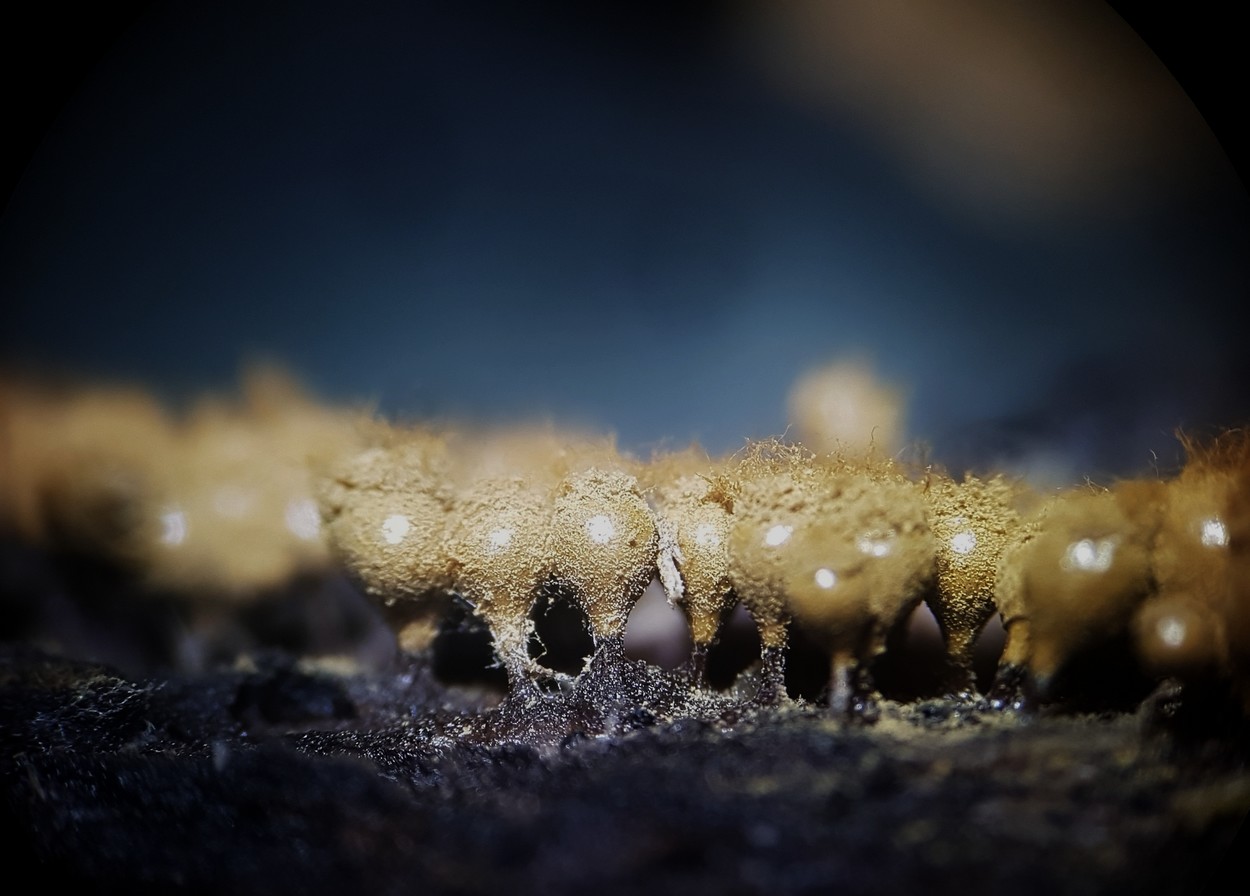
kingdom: Protozoa
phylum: Mycetozoa
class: Myxomycetes
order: Trichiales
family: Trichiaceae
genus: Trichia
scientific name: Trichia crateriformis
